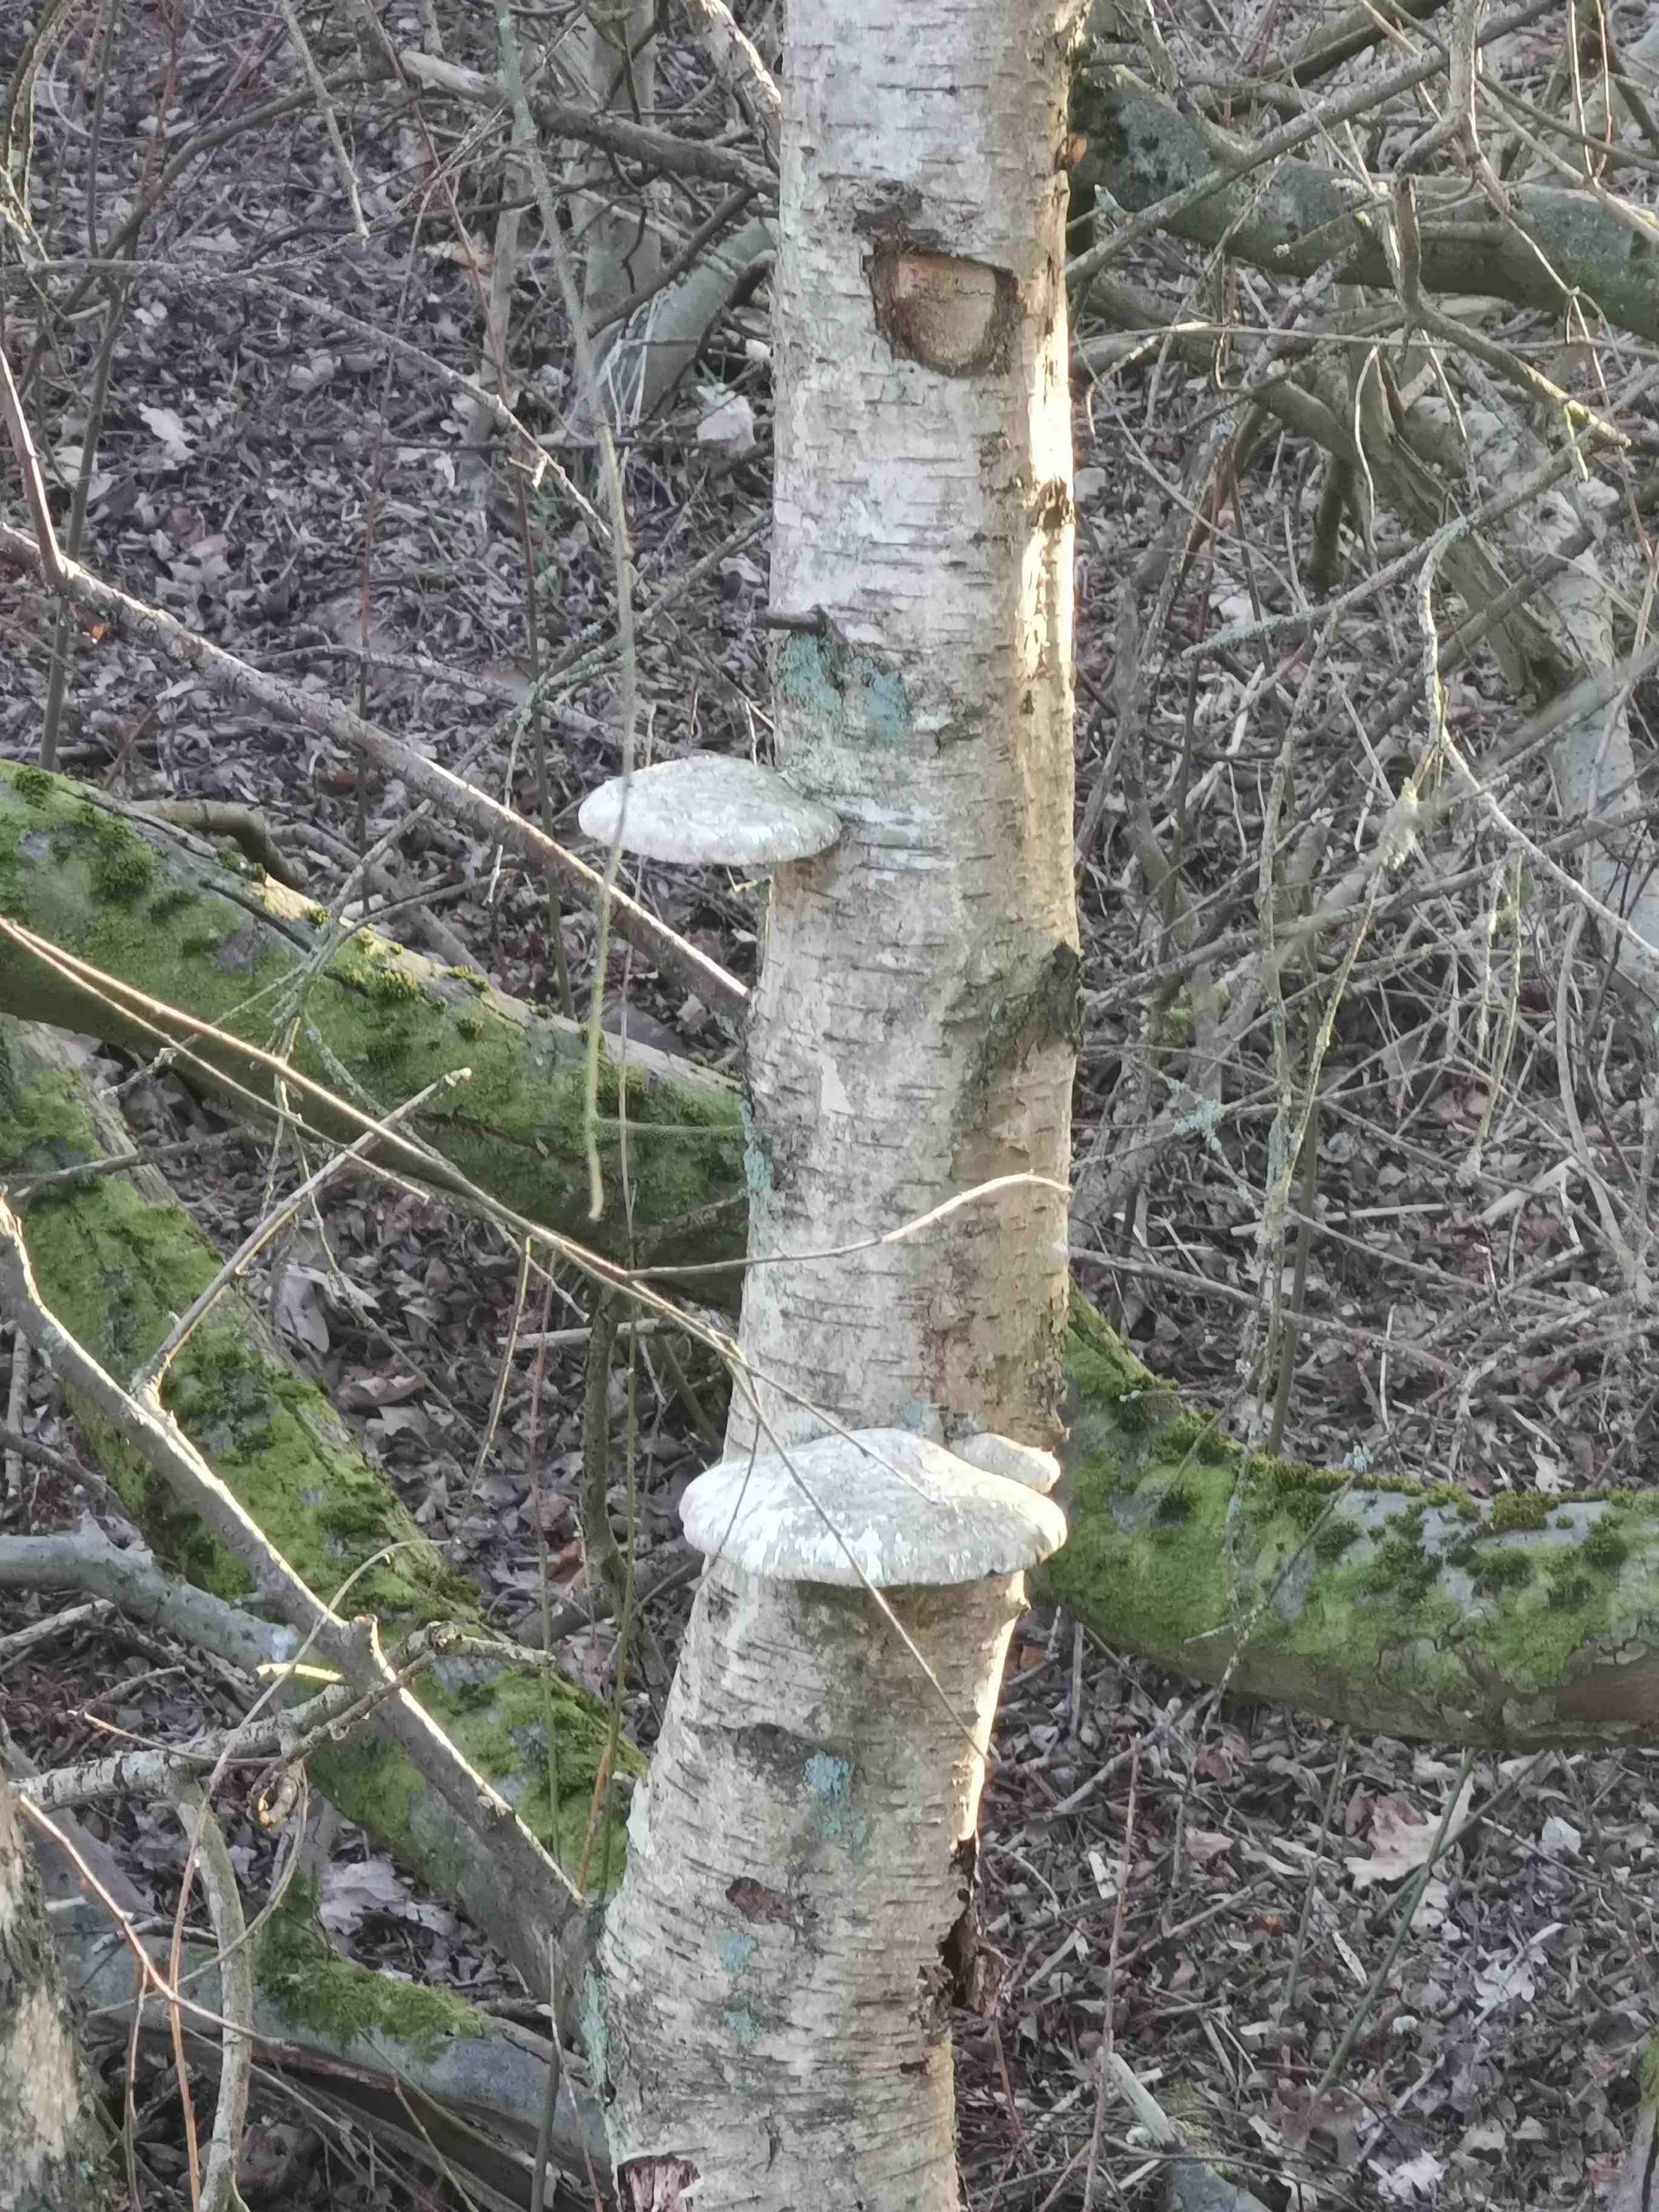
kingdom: Fungi
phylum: Basidiomycota
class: Agaricomycetes
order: Polyporales
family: Fomitopsidaceae
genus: Fomitopsis
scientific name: Fomitopsis betulina
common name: birkeporesvamp
